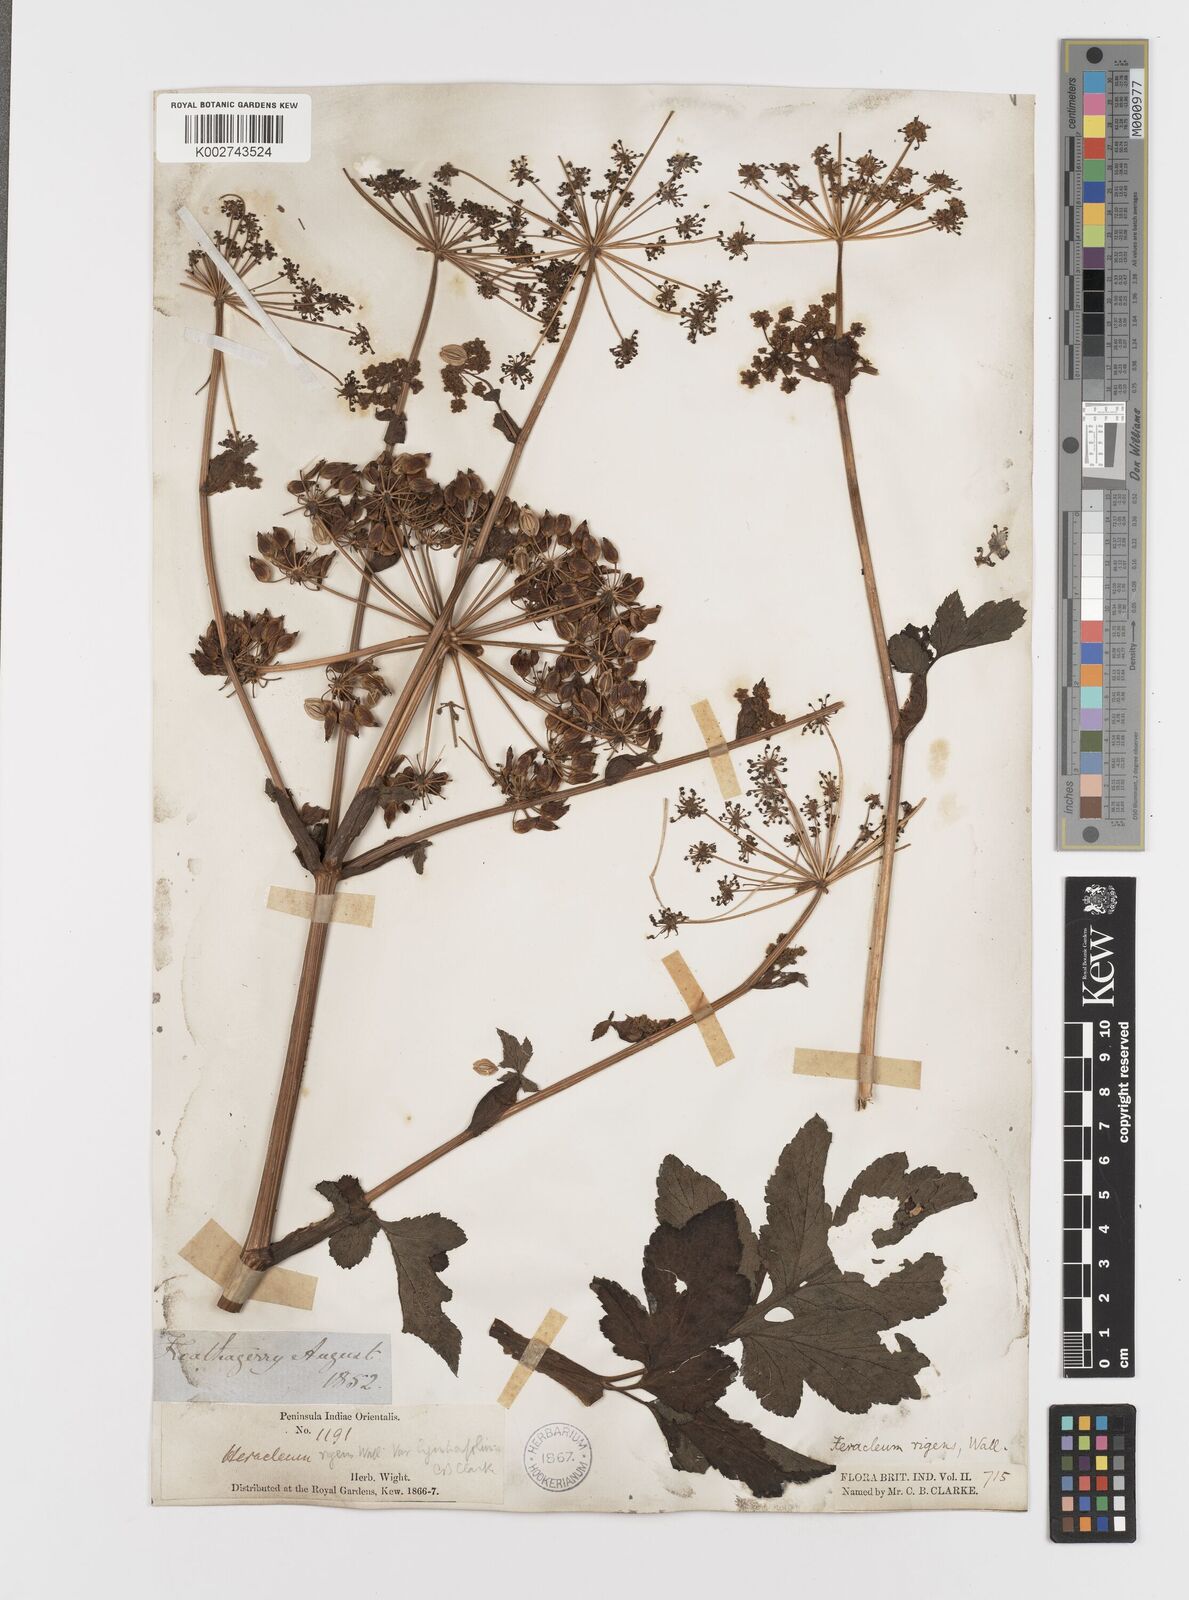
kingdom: Plantae
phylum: Tracheophyta
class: Magnoliopsida
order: Apiales
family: Apiaceae
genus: Tetrataenium
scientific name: Tetrataenium rigens
